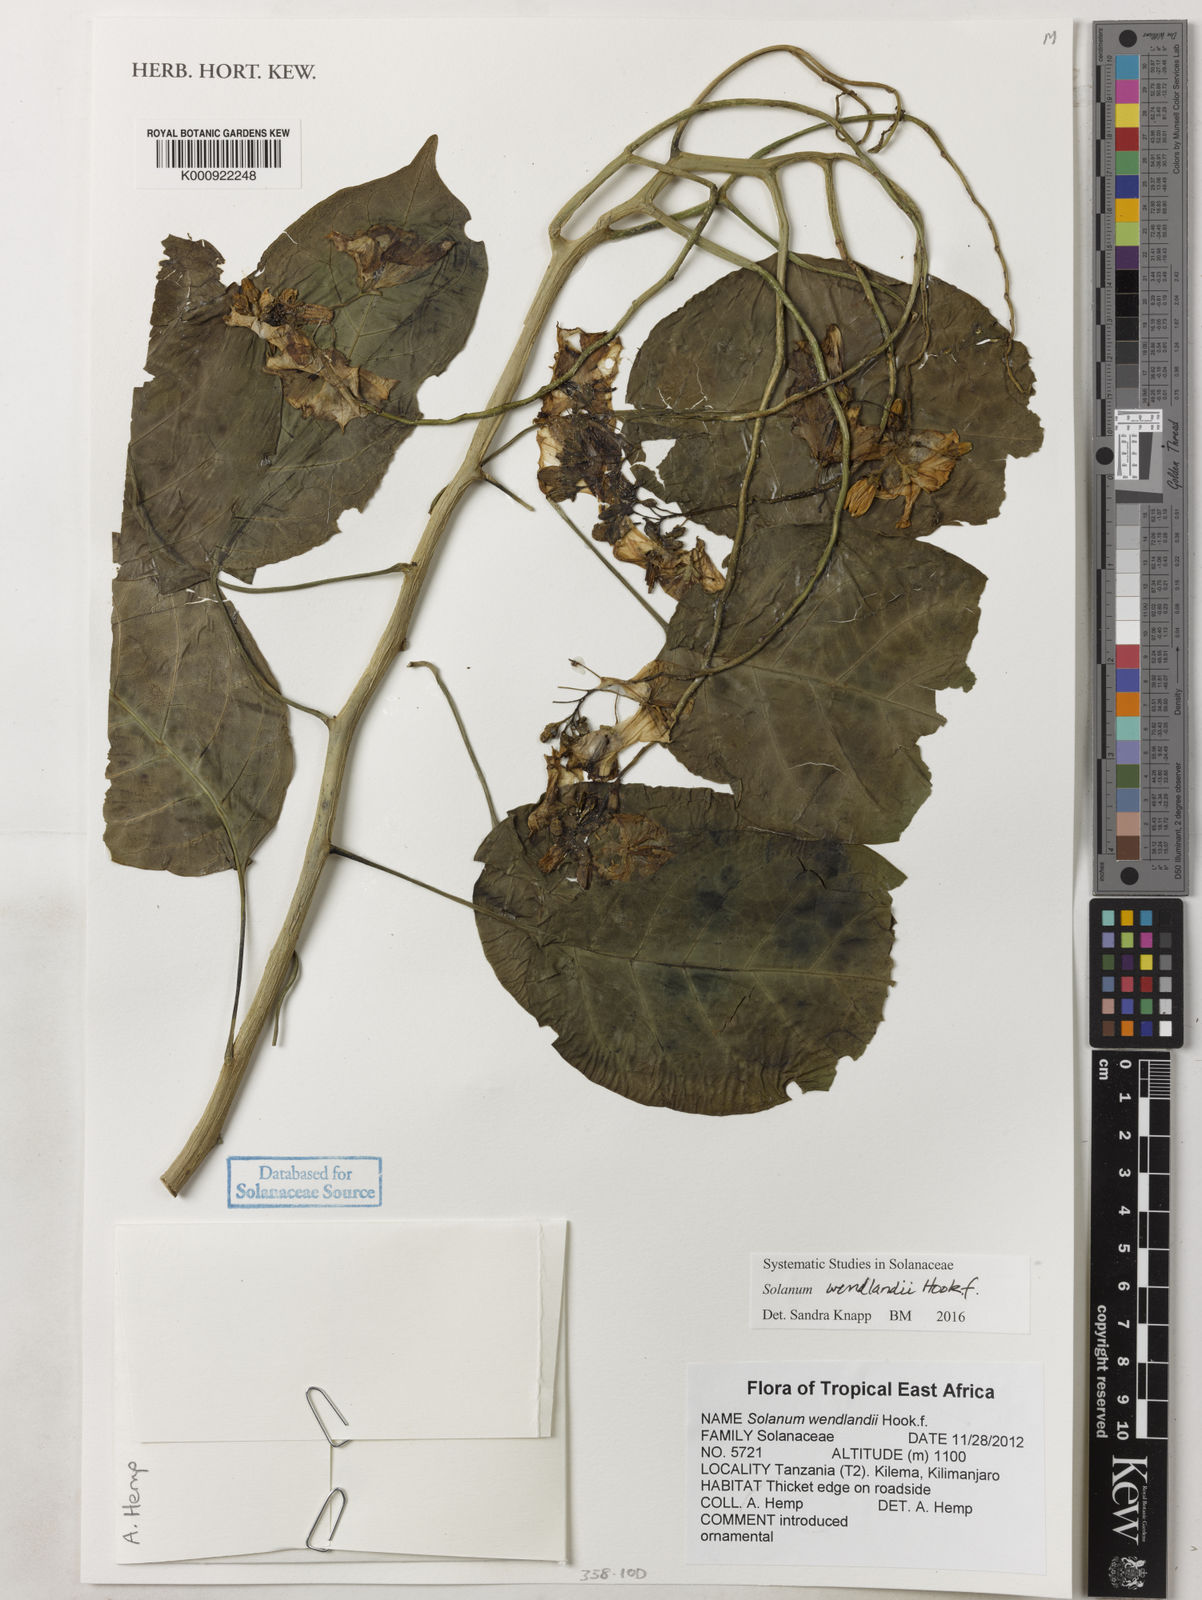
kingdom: Plantae
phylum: Tracheophyta
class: Magnoliopsida
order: Solanales
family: Solanaceae
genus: Solanum
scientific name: Solanum wendlandii
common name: Costa rican nightshade
